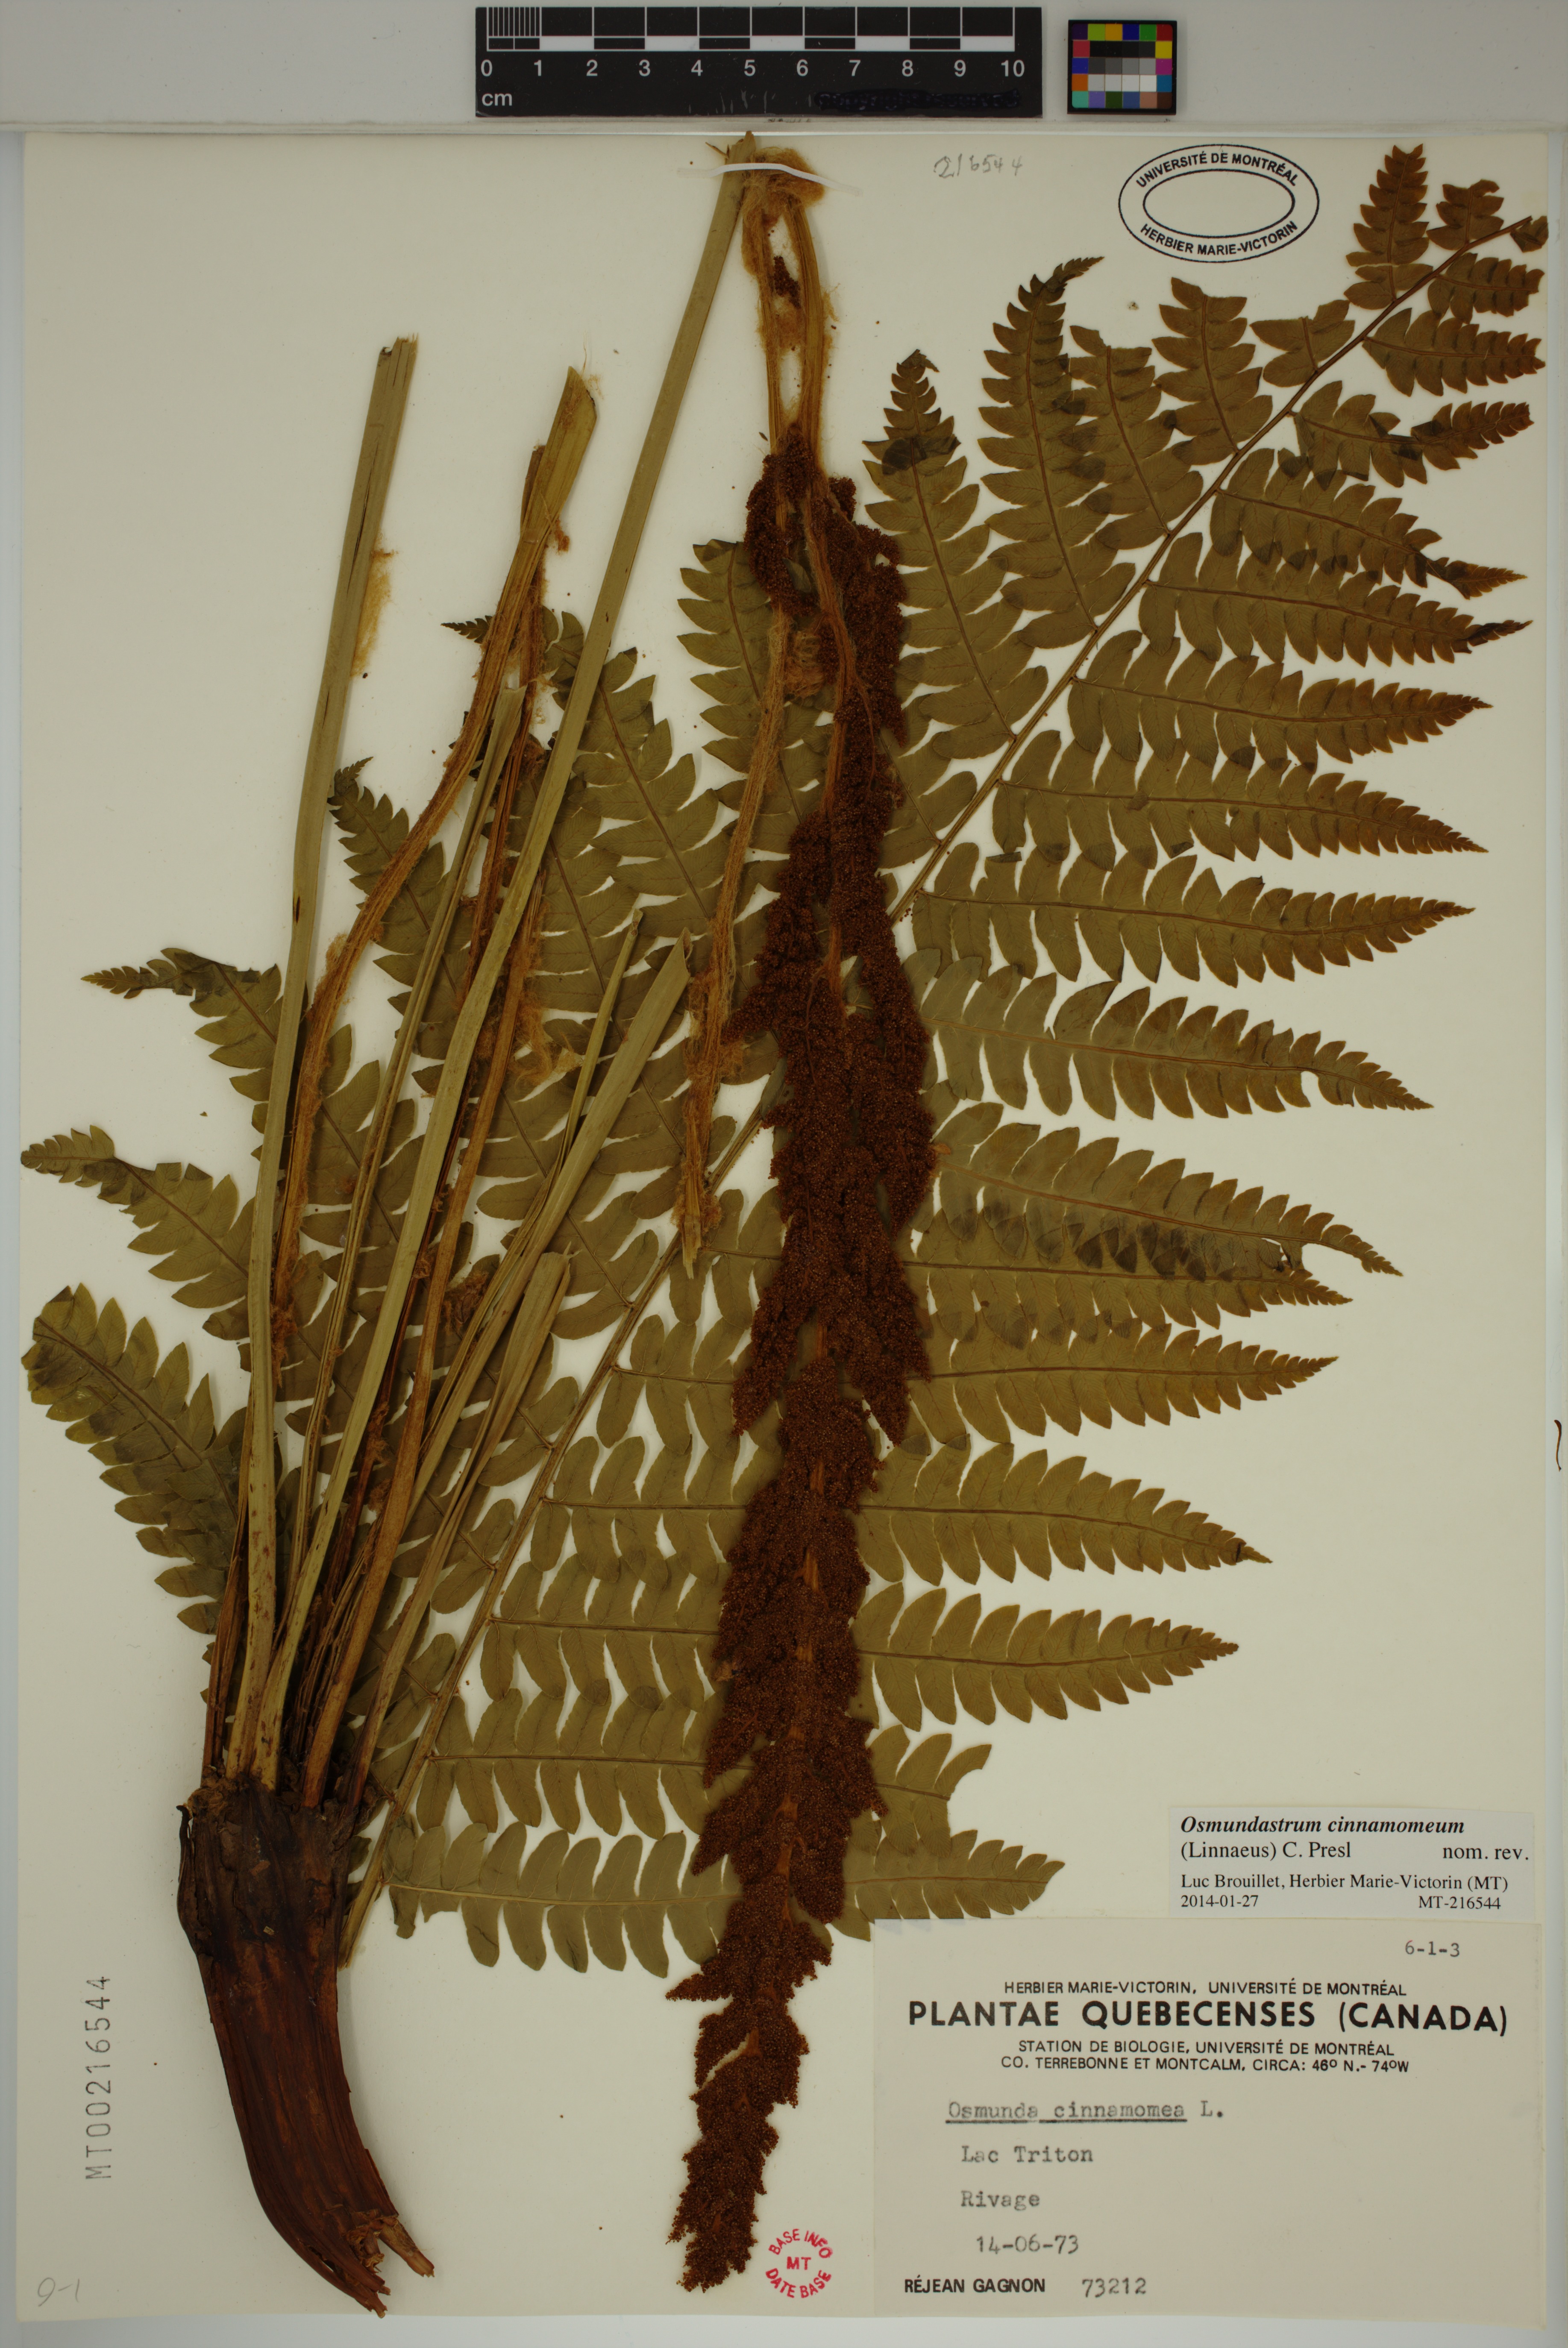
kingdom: Plantae
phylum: Tracheophyta
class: Polypodiopsida
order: Osmundales
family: Osmundaceae
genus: Osmundastrum
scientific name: Osmundastrum cinnamomeum
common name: Cinnamon fern
